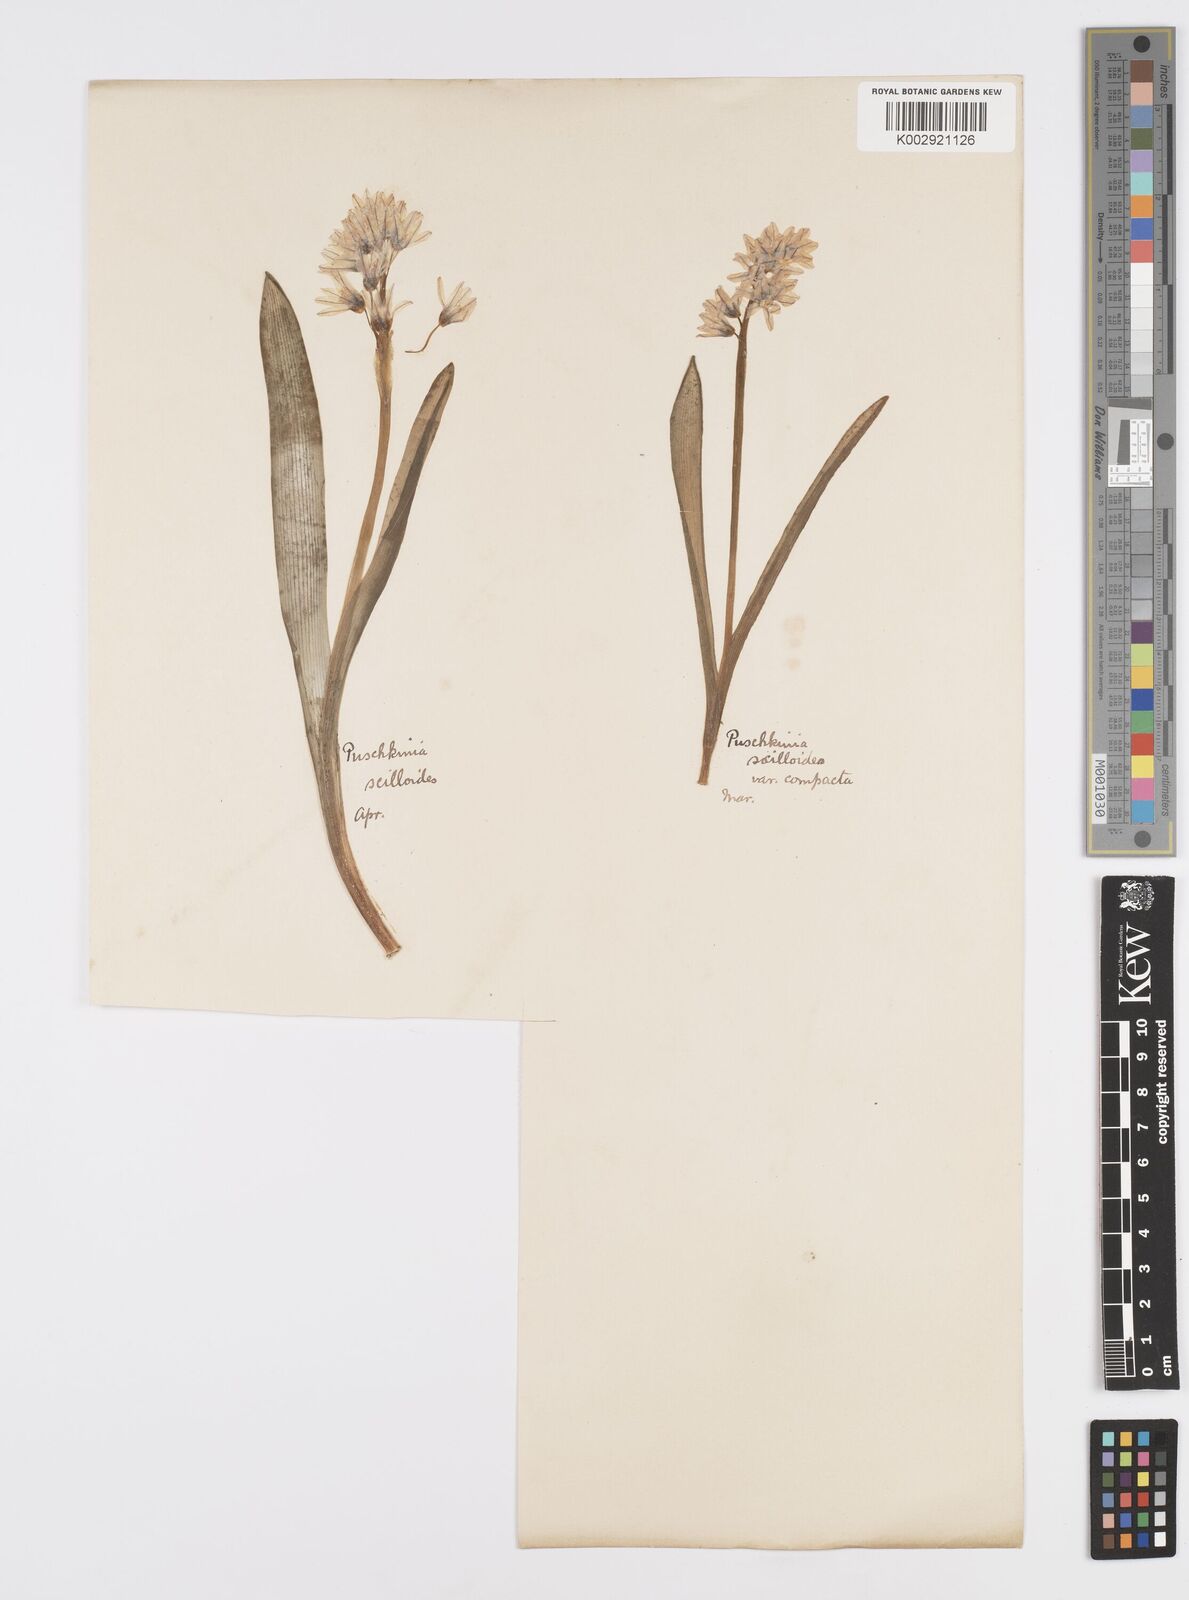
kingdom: Plantae
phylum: Tracheophyta
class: Liliopsida
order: Asparagales
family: Asparagaceae
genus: Puschkinia
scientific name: Puschkinia scilloides
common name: Striped squill
